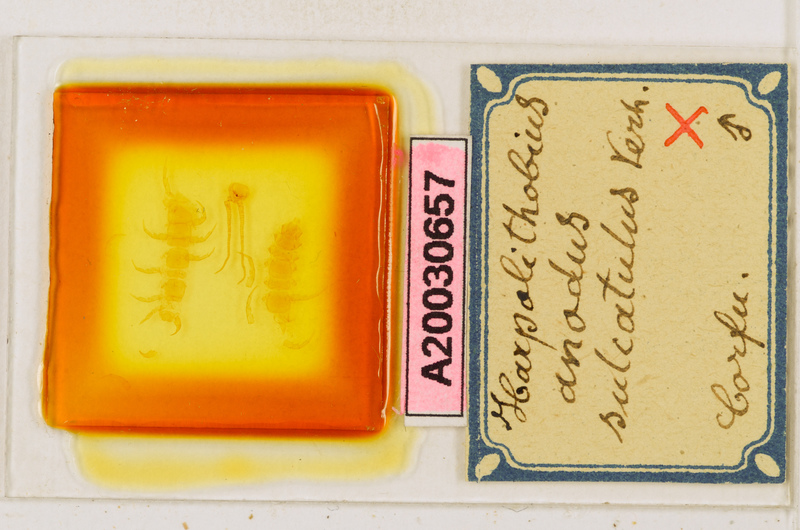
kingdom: Animalia
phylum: Arthropoda
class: Chilopoda
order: Lithobiomorpha
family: Lithobiidae
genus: Harpolithobius
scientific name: Harpolithobius anodus
